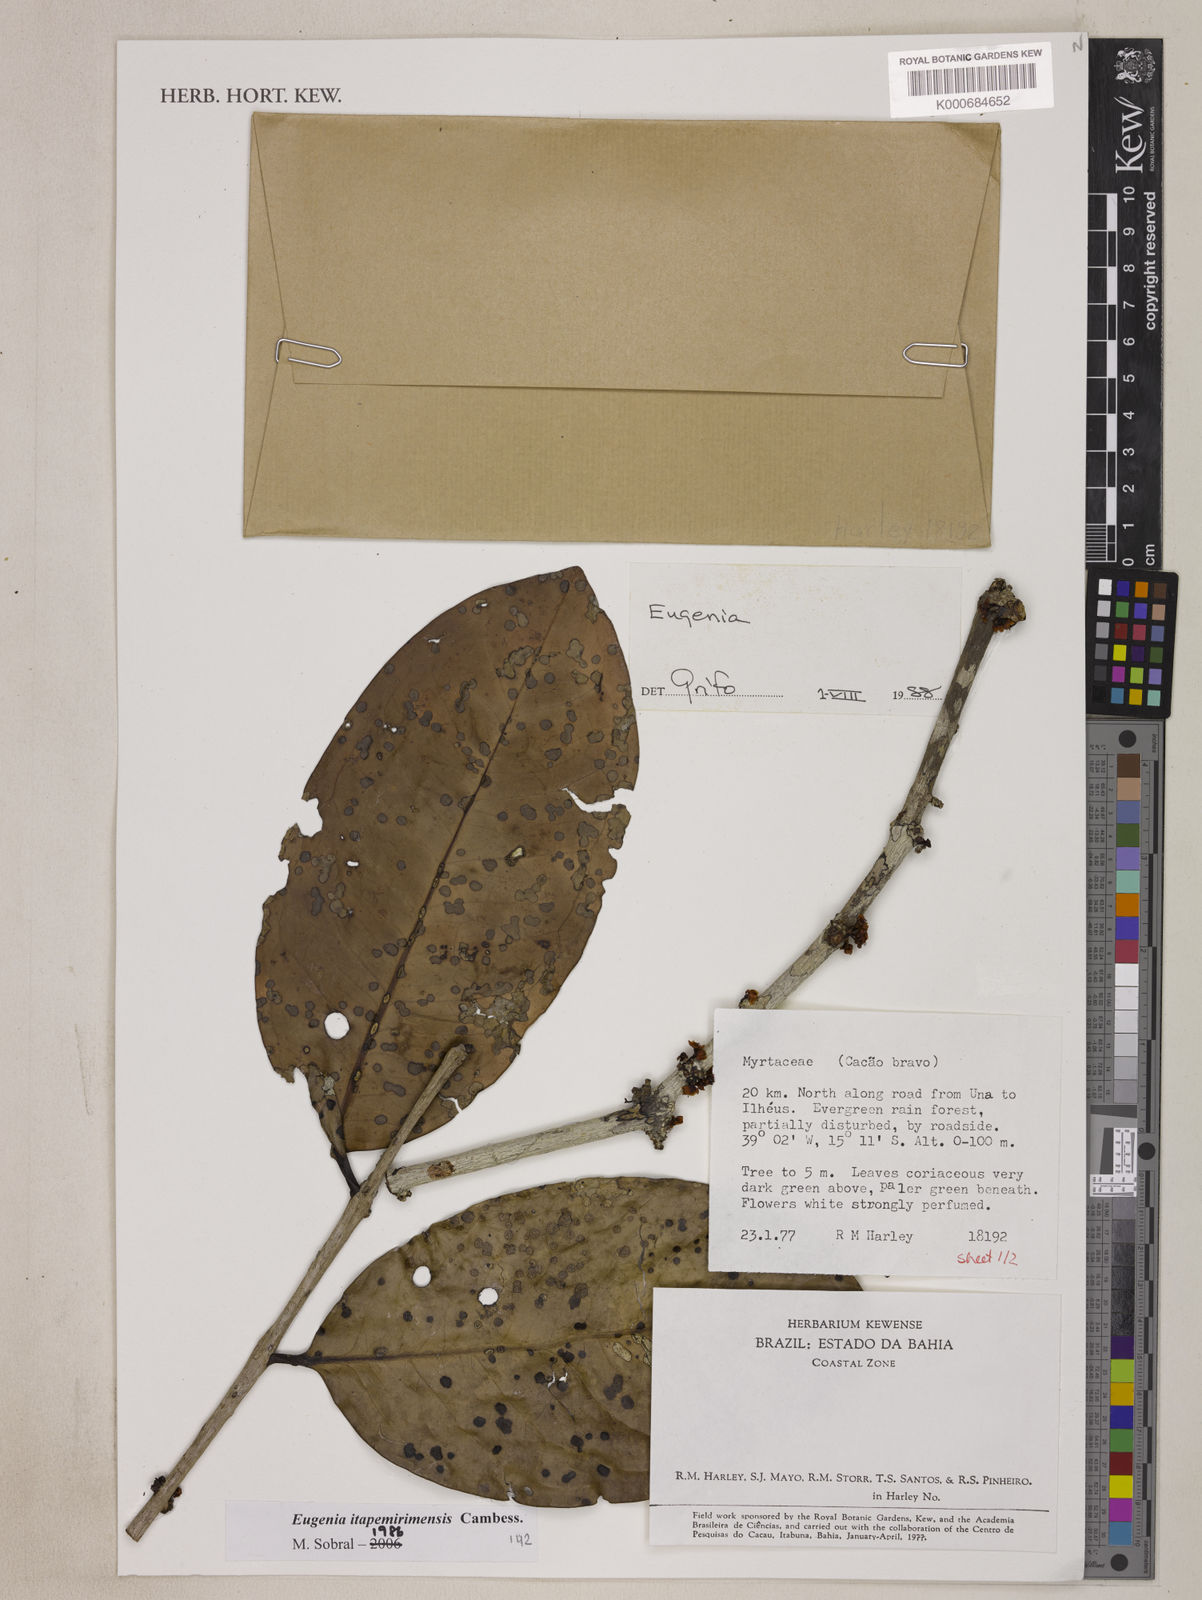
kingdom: Plantae
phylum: Tracheophyta
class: Magnoliopsida
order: Myrtales
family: Myrtaceae
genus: Eugenia
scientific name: Eugenia itapemirimensis
